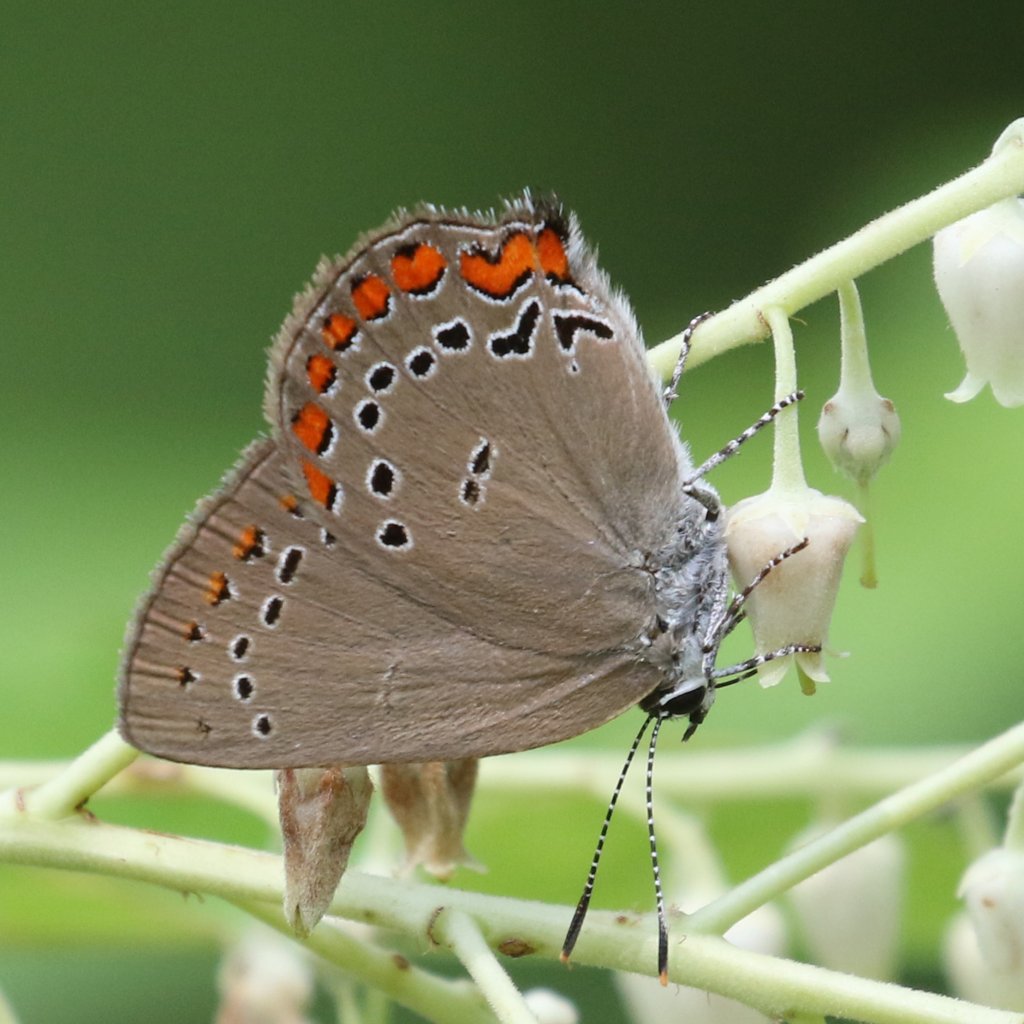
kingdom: Animalia
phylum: Arthropoda
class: Insecta
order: Lepidoptera
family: Lycaenidae
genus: Harkenclenus
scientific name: Harkenclenus titus
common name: Coral Hairstreak
